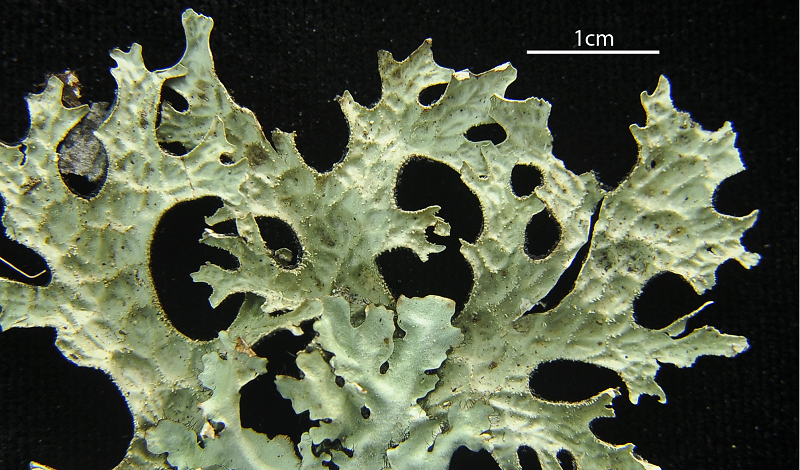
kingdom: Fungi
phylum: Ascomycota
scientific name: Ascomycota
